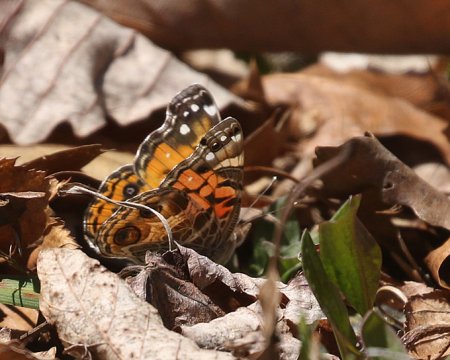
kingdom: Animalia
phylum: Arthropoda
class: Insecta
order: Lepidoptera
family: Nymphalidae
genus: Vanessa
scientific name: Vanessa virginiensis
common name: American Lady
